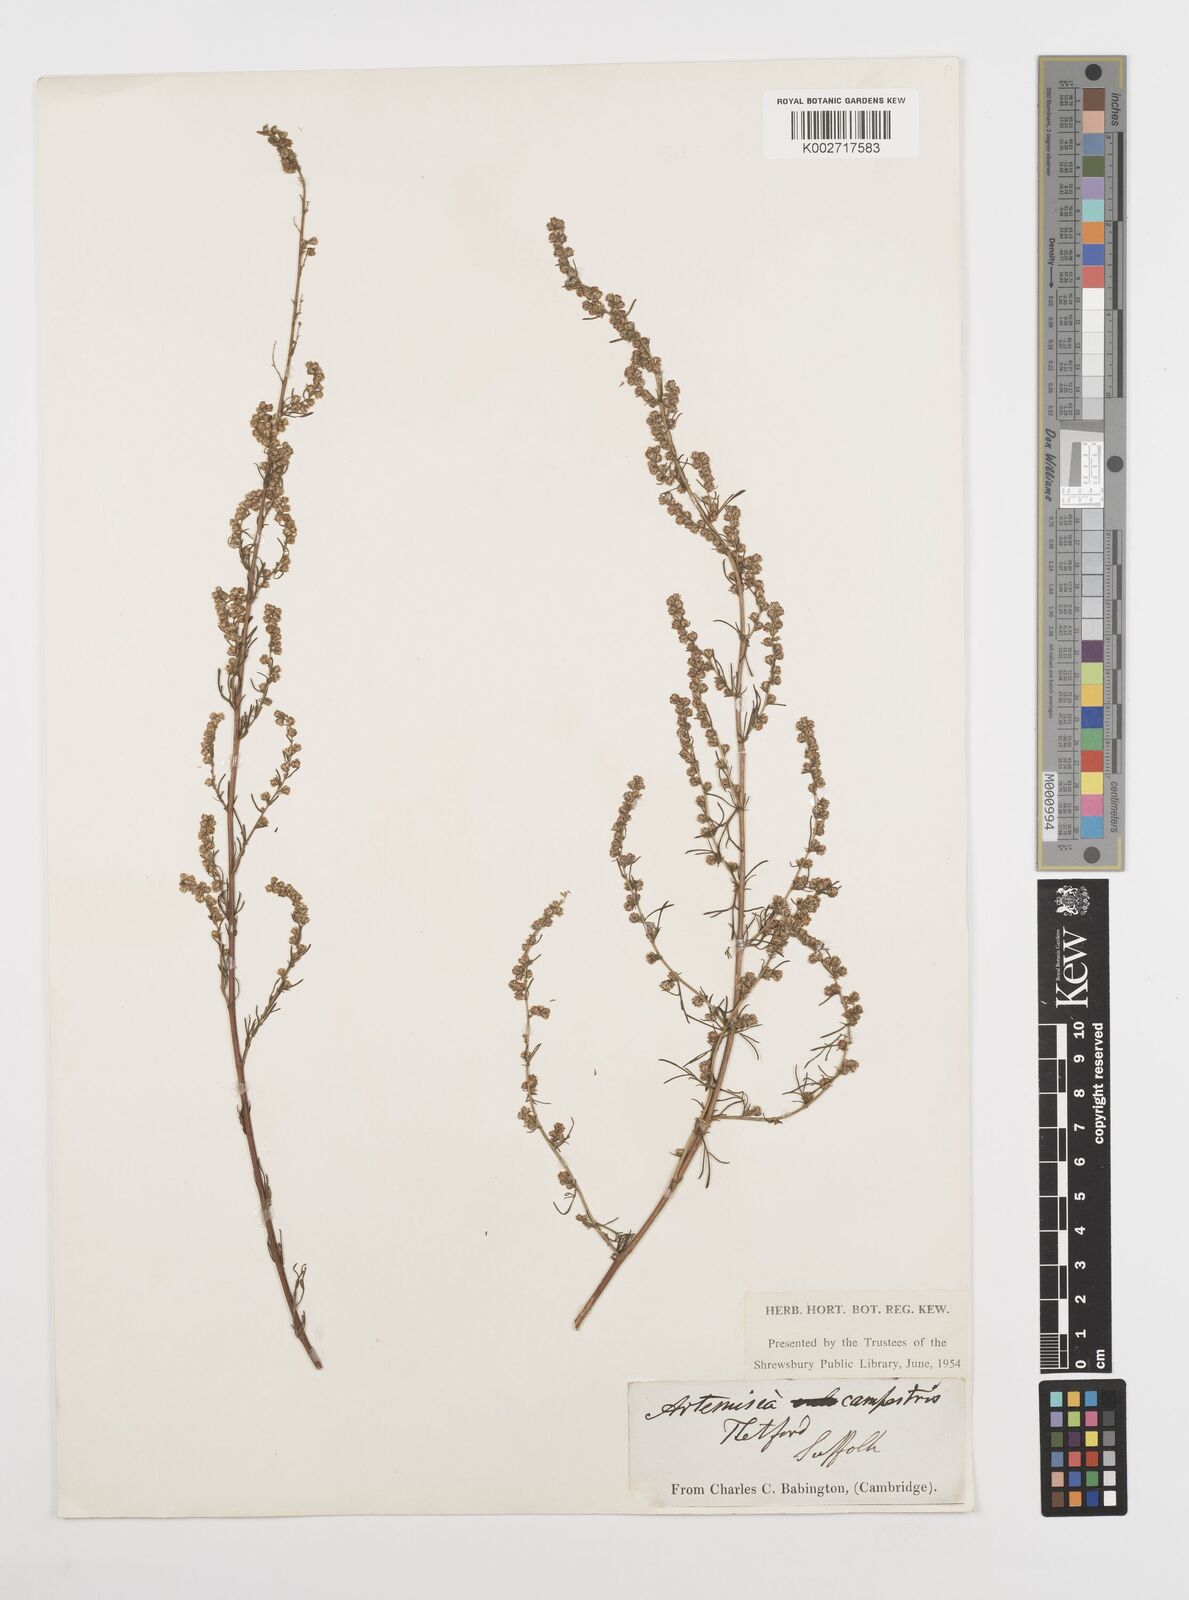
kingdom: Plantae
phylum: Tracheophyta
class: Magnoliopsida
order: Asterales
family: Asteraceae
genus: Artemisia
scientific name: Artemisia campestris
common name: Field wormwood
